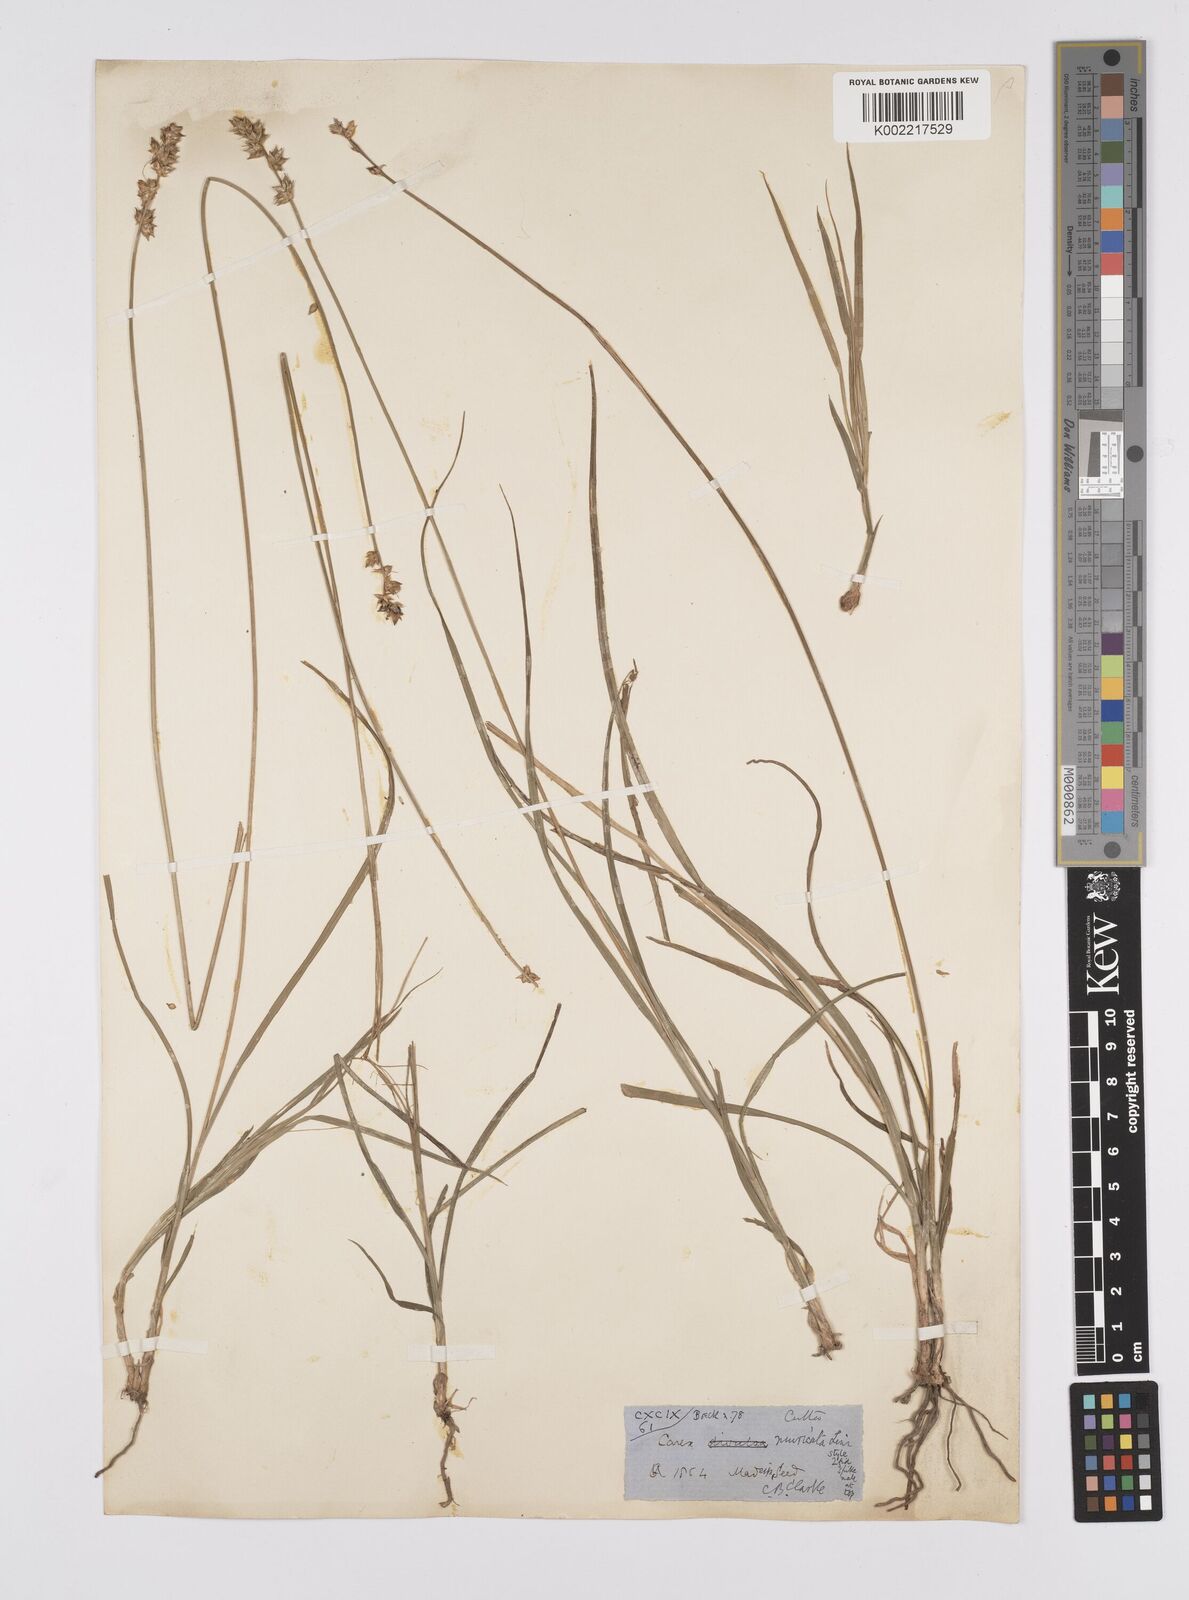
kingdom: Plantae
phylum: Tracheophyta
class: Liliopsida
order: Poales
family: Cyperaceae
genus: Carex
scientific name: Carex muricata
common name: Rough sedge
